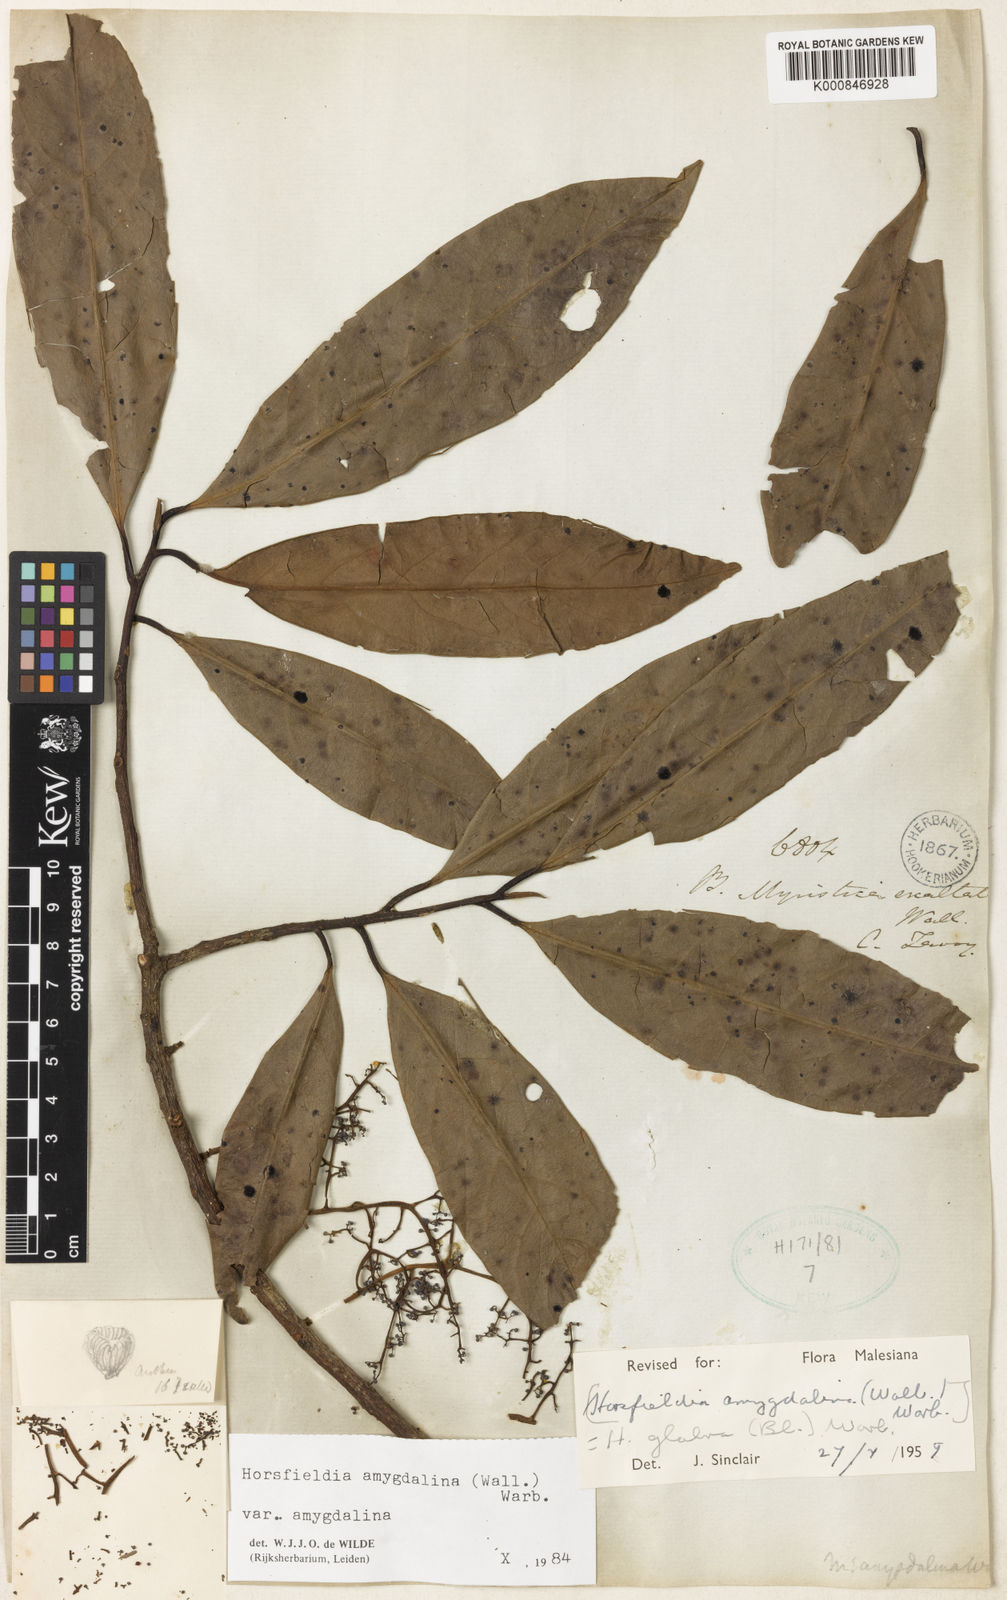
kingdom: Plantae
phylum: Tracheophyta
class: Magnoliopsida
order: Magnoliales
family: Myristicaceae
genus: Horsfieldia
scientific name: Horsfieldia amygdalina
